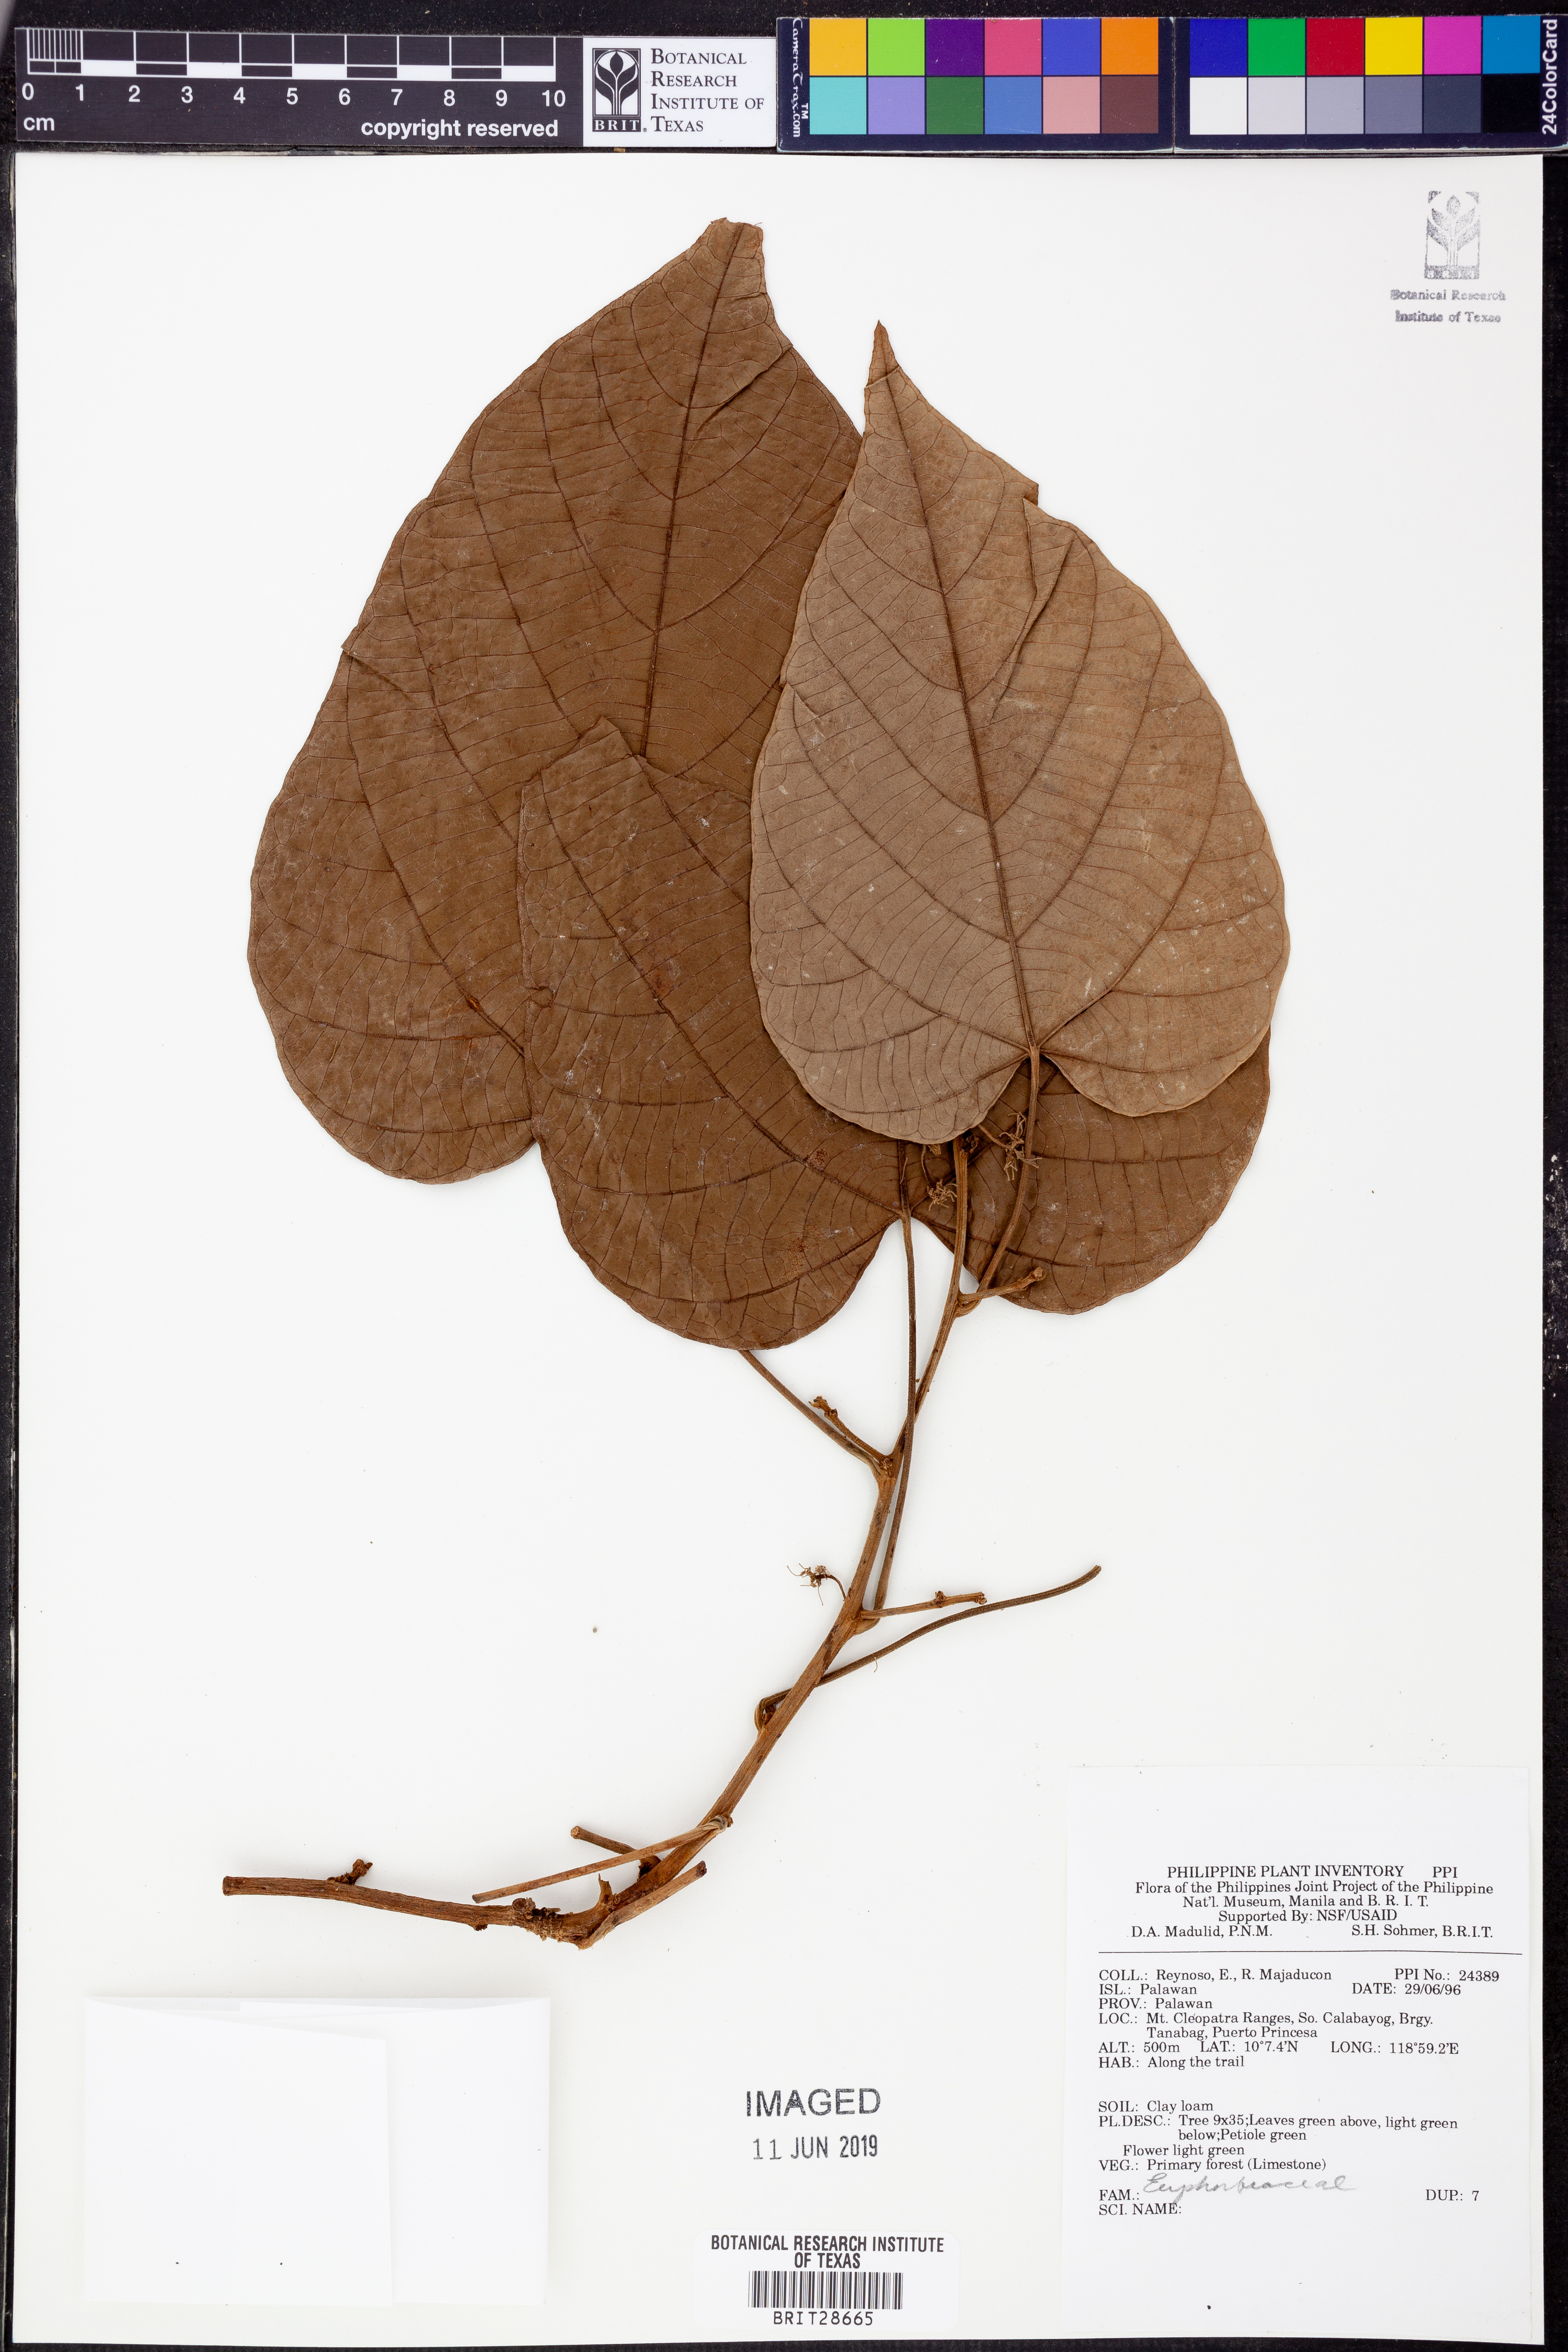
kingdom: Plantae
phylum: Tracheophyta
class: Magnoliopsida
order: Malpighiales
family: Euphorbiaceae
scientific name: Euphorbiaceae
